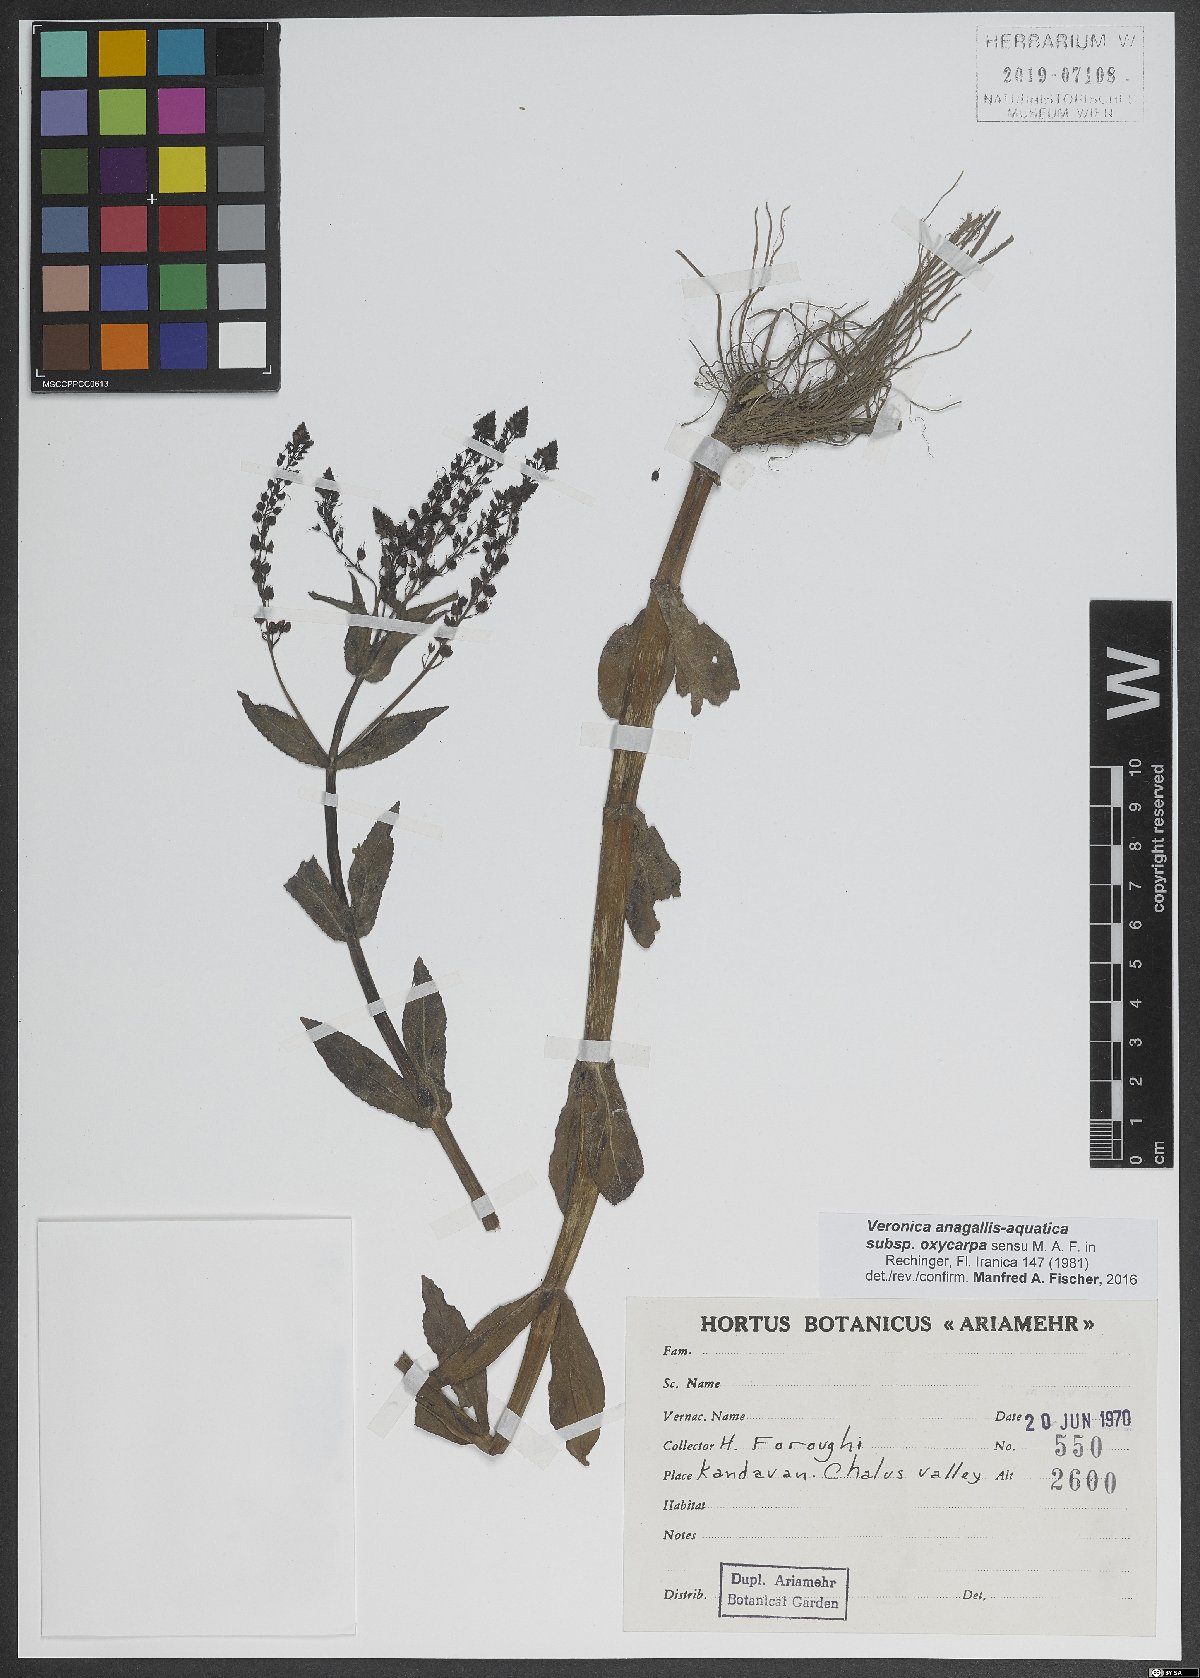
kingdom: Plantae
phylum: Tracheophyta
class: Magnoliopsida
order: Lamiales
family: Plantaginaceae
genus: Veronica
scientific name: Veronica oxycarpa
